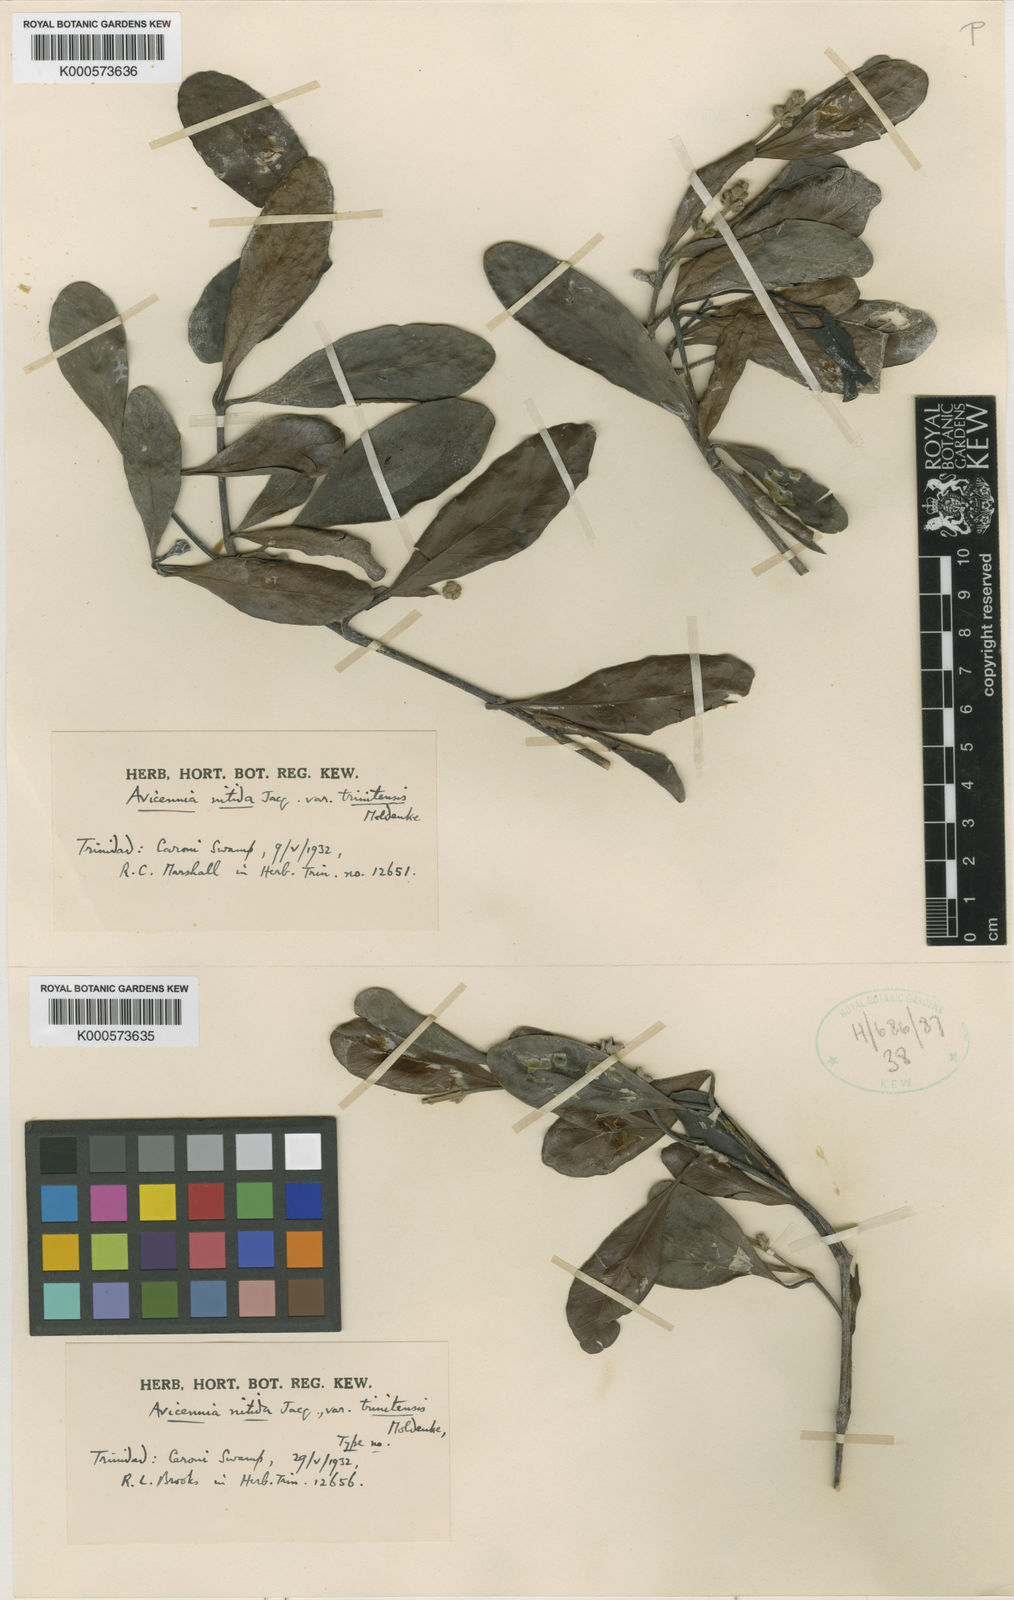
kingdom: Plantae
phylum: Tracheophyta
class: Magnoliopsida
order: Lamiales
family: Acanthaceae
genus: Avicennia
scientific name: Avicennia germinans
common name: Black mangrove
